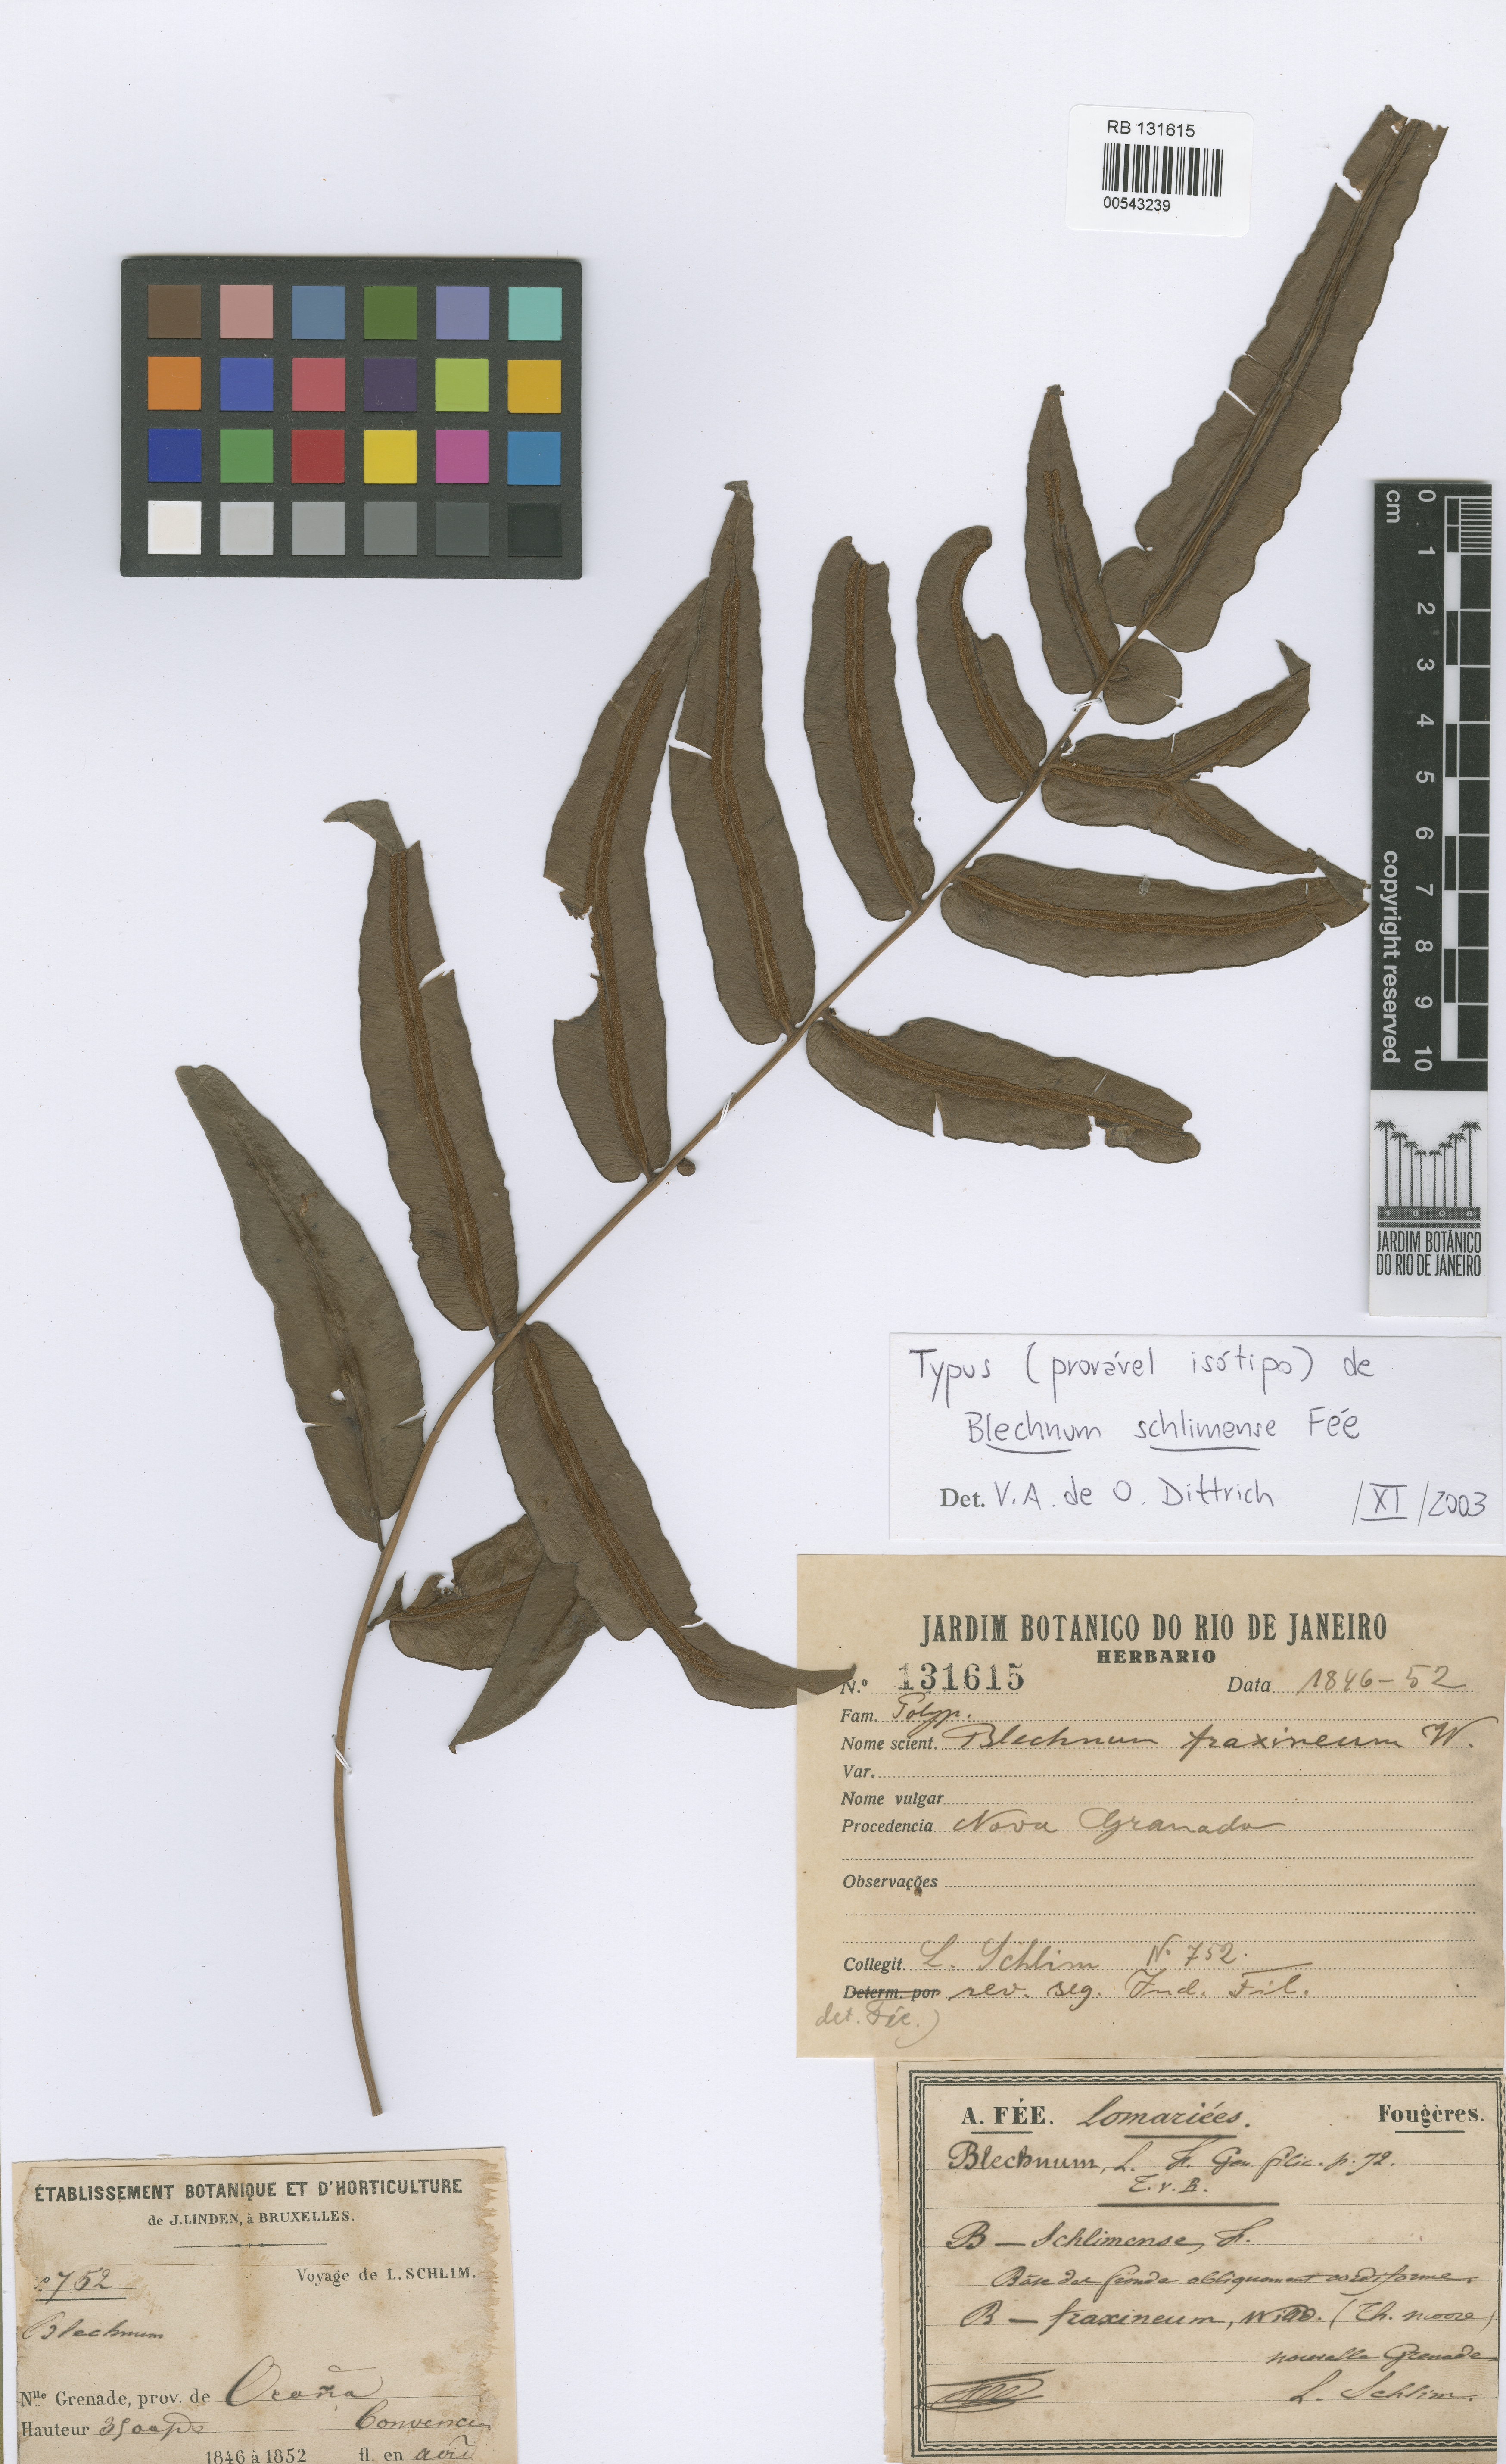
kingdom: Plantae
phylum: Tracheophyta
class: Polypodiopsida
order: Polypodiales
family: Blechnaceae
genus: Blechnum
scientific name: Blechnum meridense
